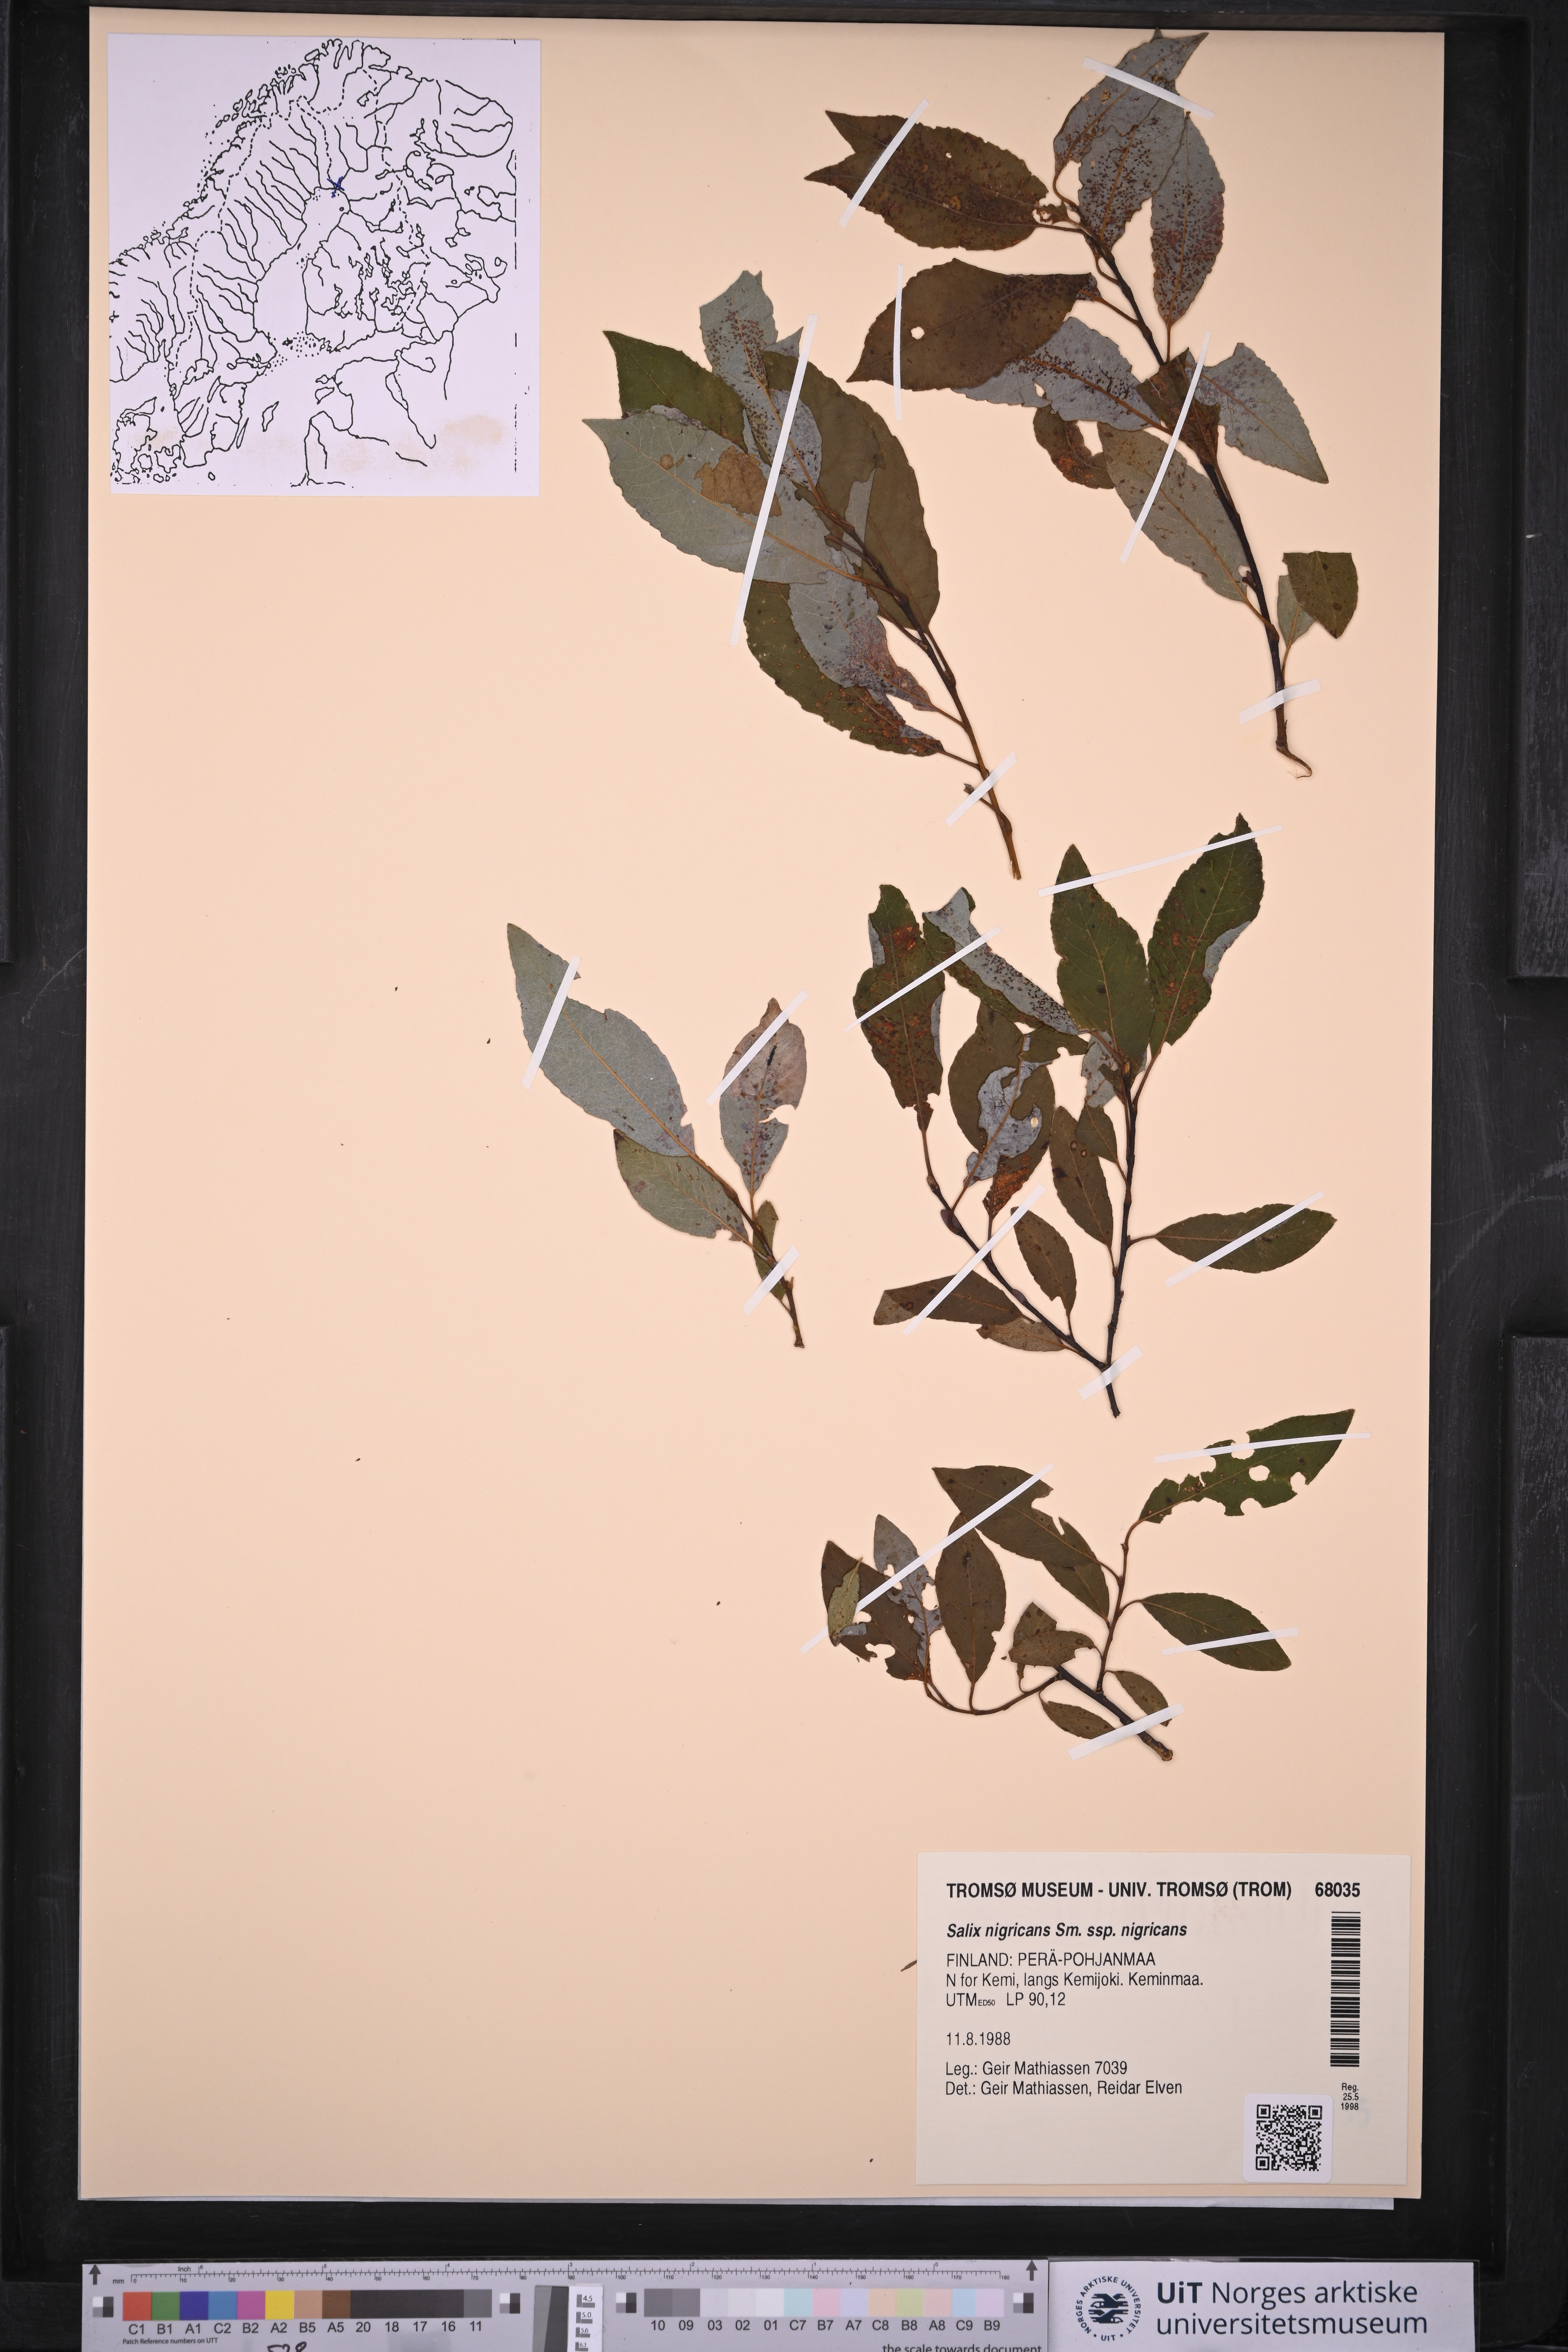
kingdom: Plantae
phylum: Tracheophyta
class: Magnoliopsida
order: Malpighiales
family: Salicaceae
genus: Salix
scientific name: Salix myrsinifolia
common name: Dark-leaved willow
